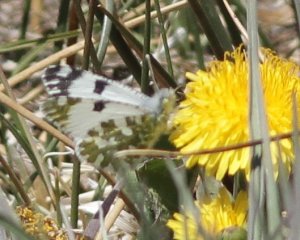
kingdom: Animalia
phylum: Arthropoda
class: Insecta
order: Lepidoptera
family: Pieridae
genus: Euchloe
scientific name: Euchloe lotta
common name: Desert Marble
